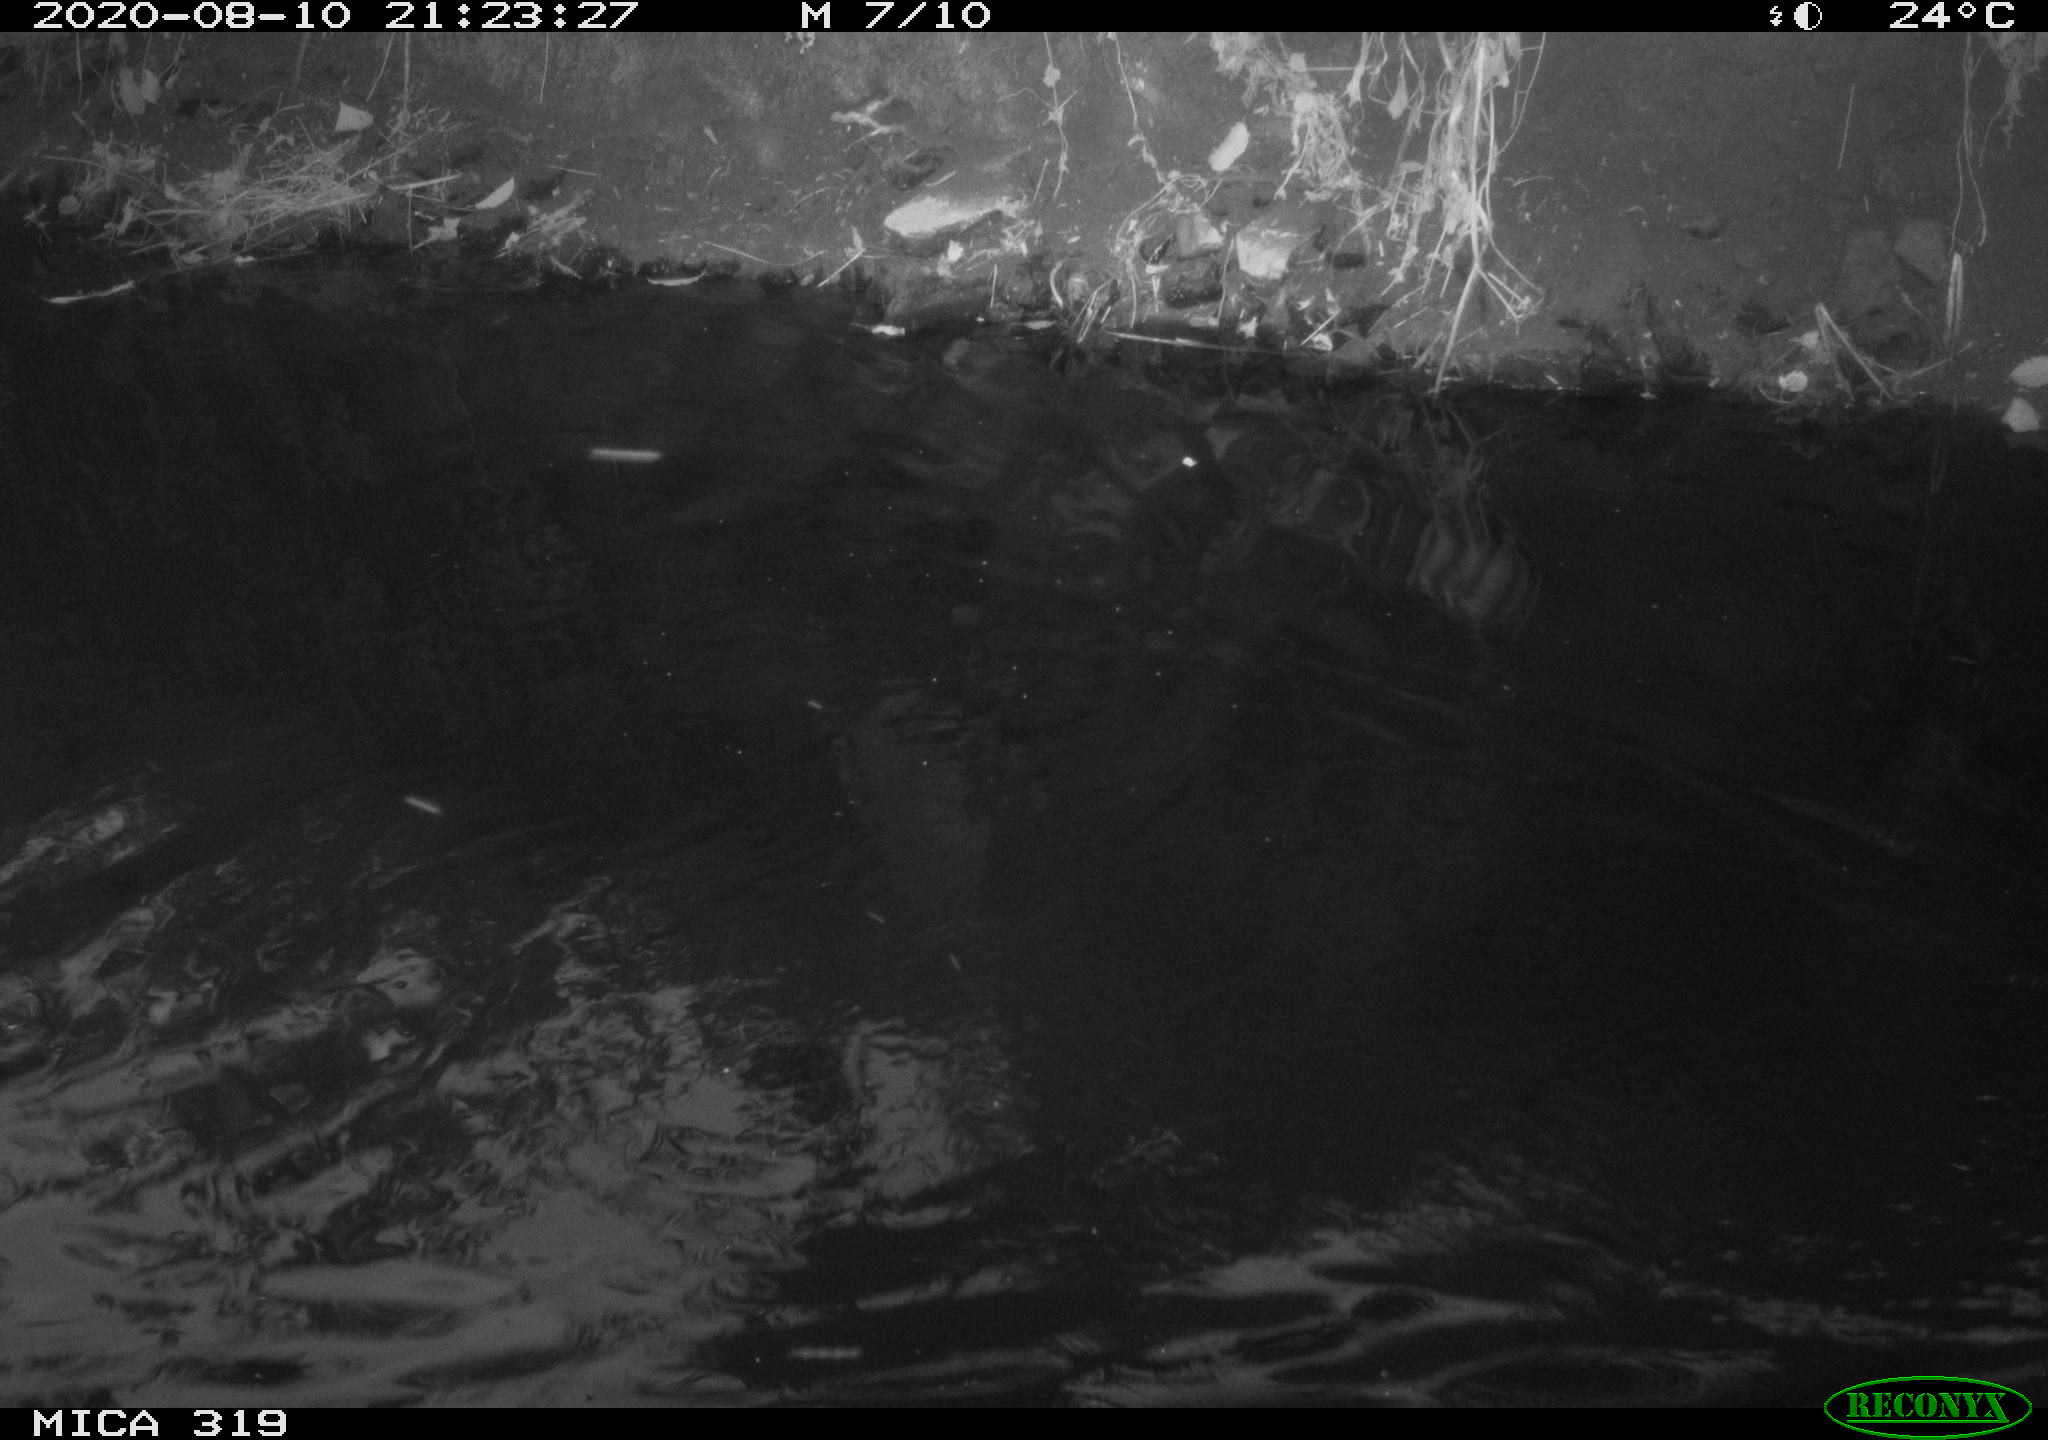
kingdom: Animalia
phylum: Chordata
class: Aves
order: Anseriformes
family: Anatidae
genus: Anas
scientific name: Anas platyrhynchos
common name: Mallard
